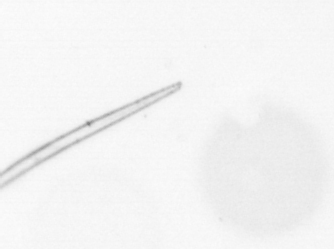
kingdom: Chromista
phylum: Ochrophyta
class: Bacillariophyceae
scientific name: Bacillariophyceae
